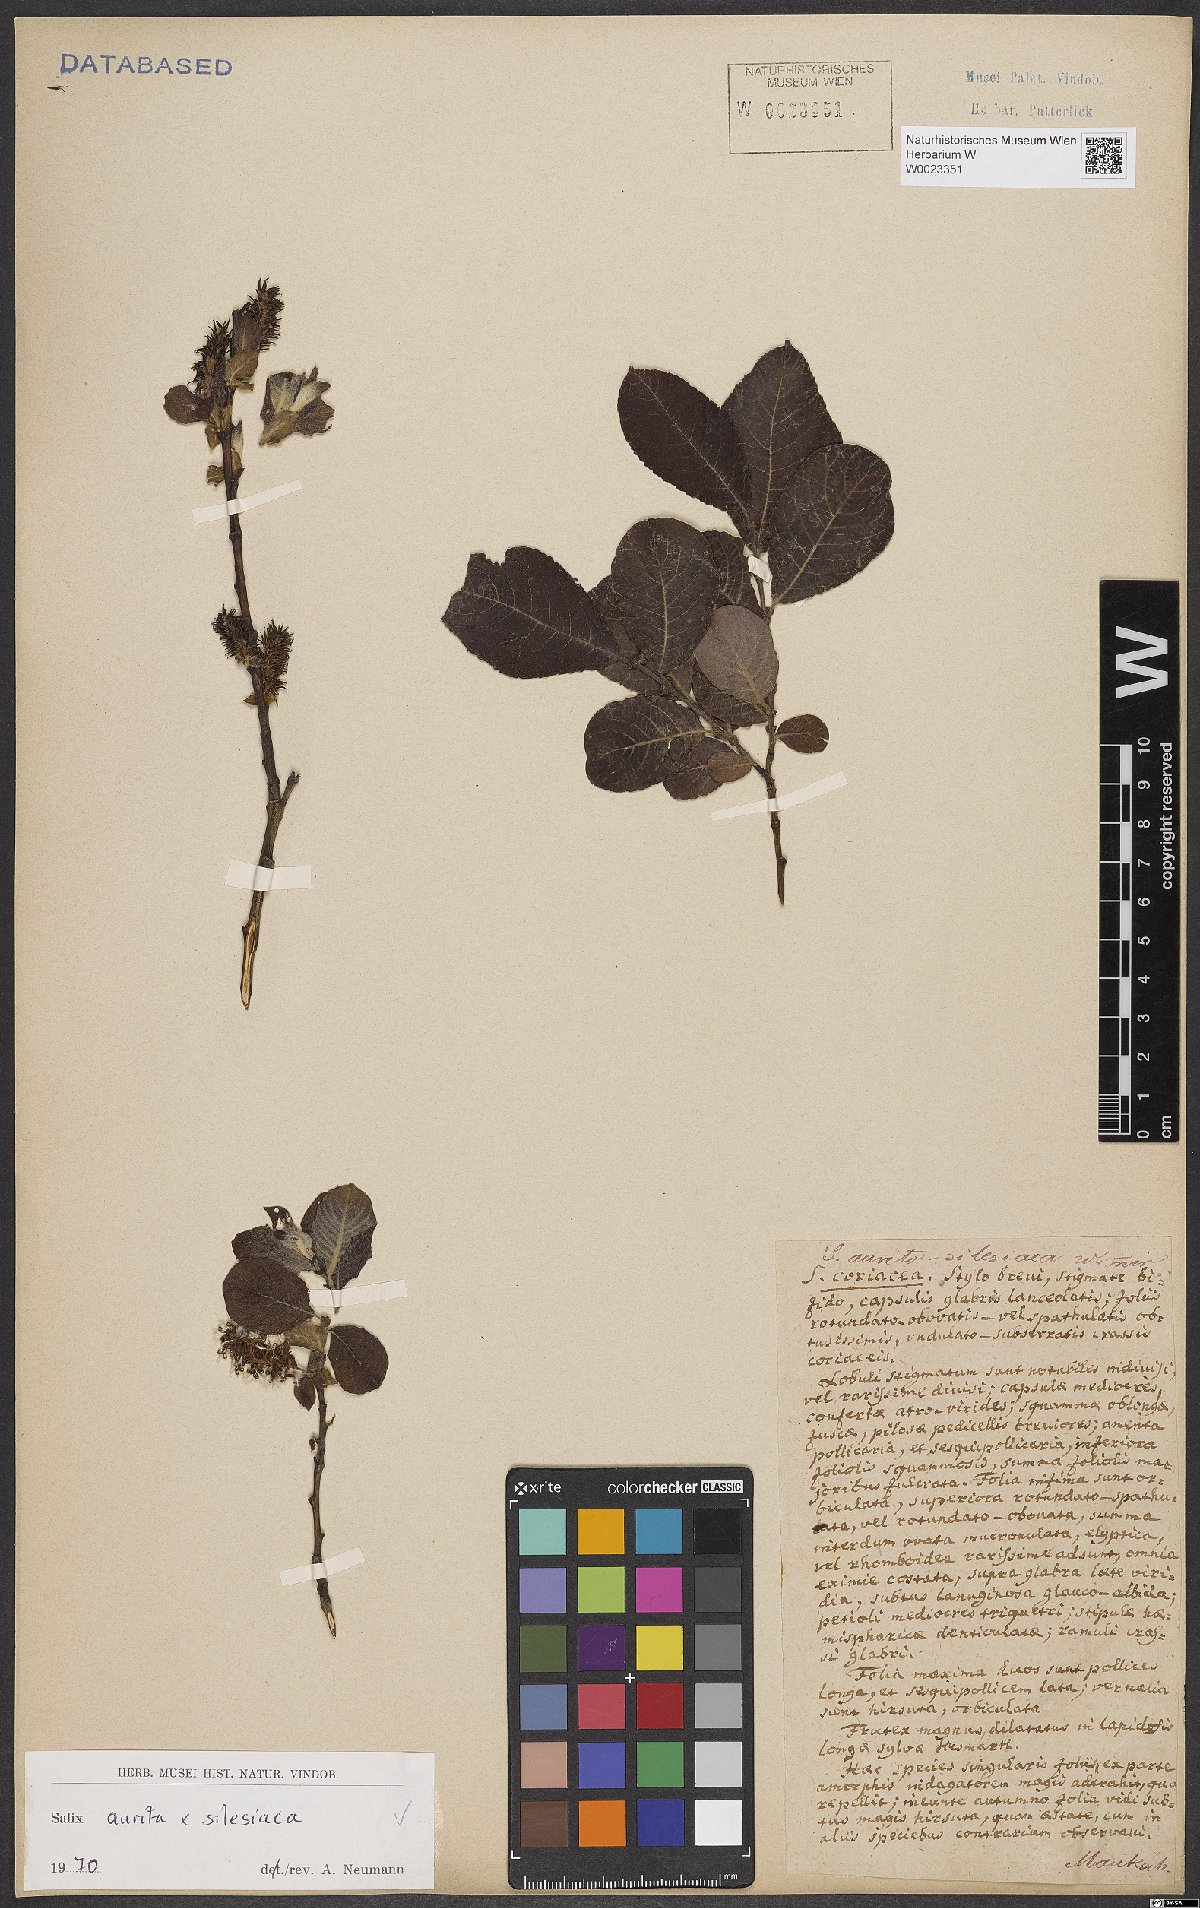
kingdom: Plantae
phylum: Tracheophyta
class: Magnoliopsida
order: Malpighiales
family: Salicaceae
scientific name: Salicaceae
